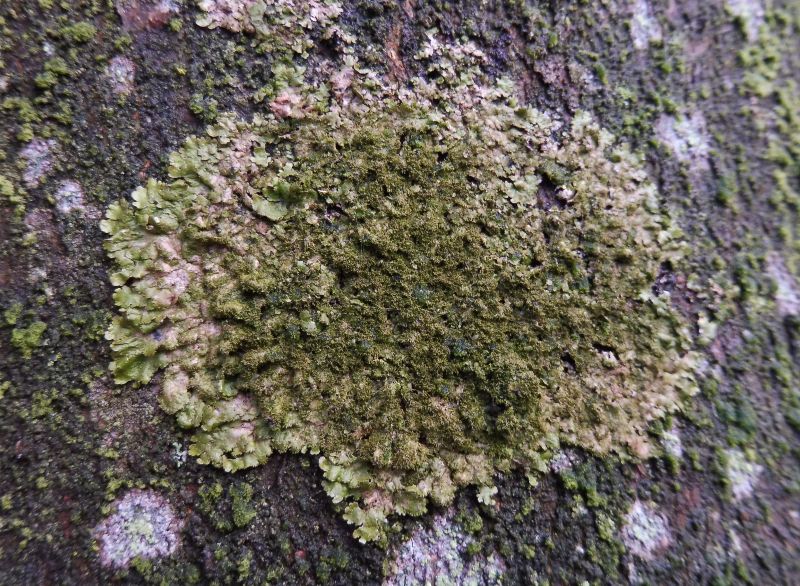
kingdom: Fungi
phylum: Ascomycota
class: Lecanoromycetes
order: Lecanorales
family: Parmeliaceae
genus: Melanelixia
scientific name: Melanelixia glabratula
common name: glinsende skållav
